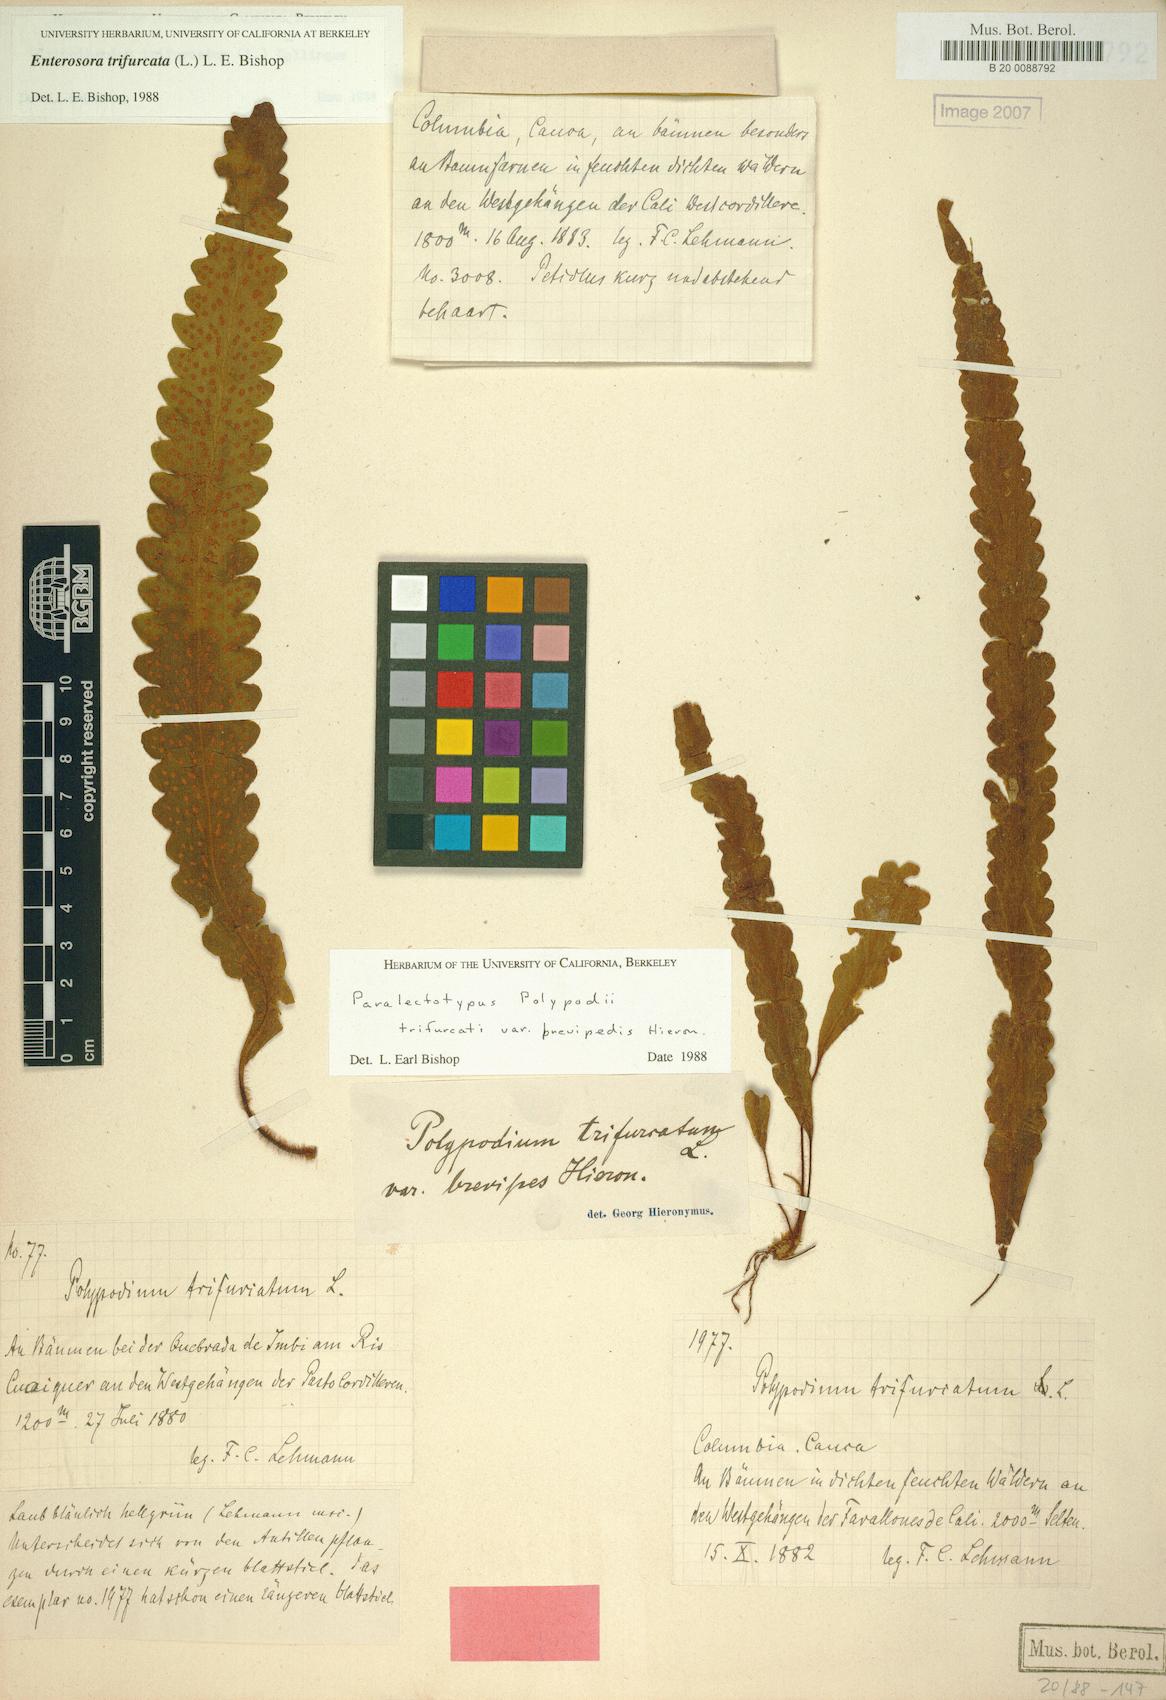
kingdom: Plantae
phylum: Tracheophyta
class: Polypodiopsida
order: Polypodiales
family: Polypodiaceae
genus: Enterosora
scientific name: Enterosora trifurcata
